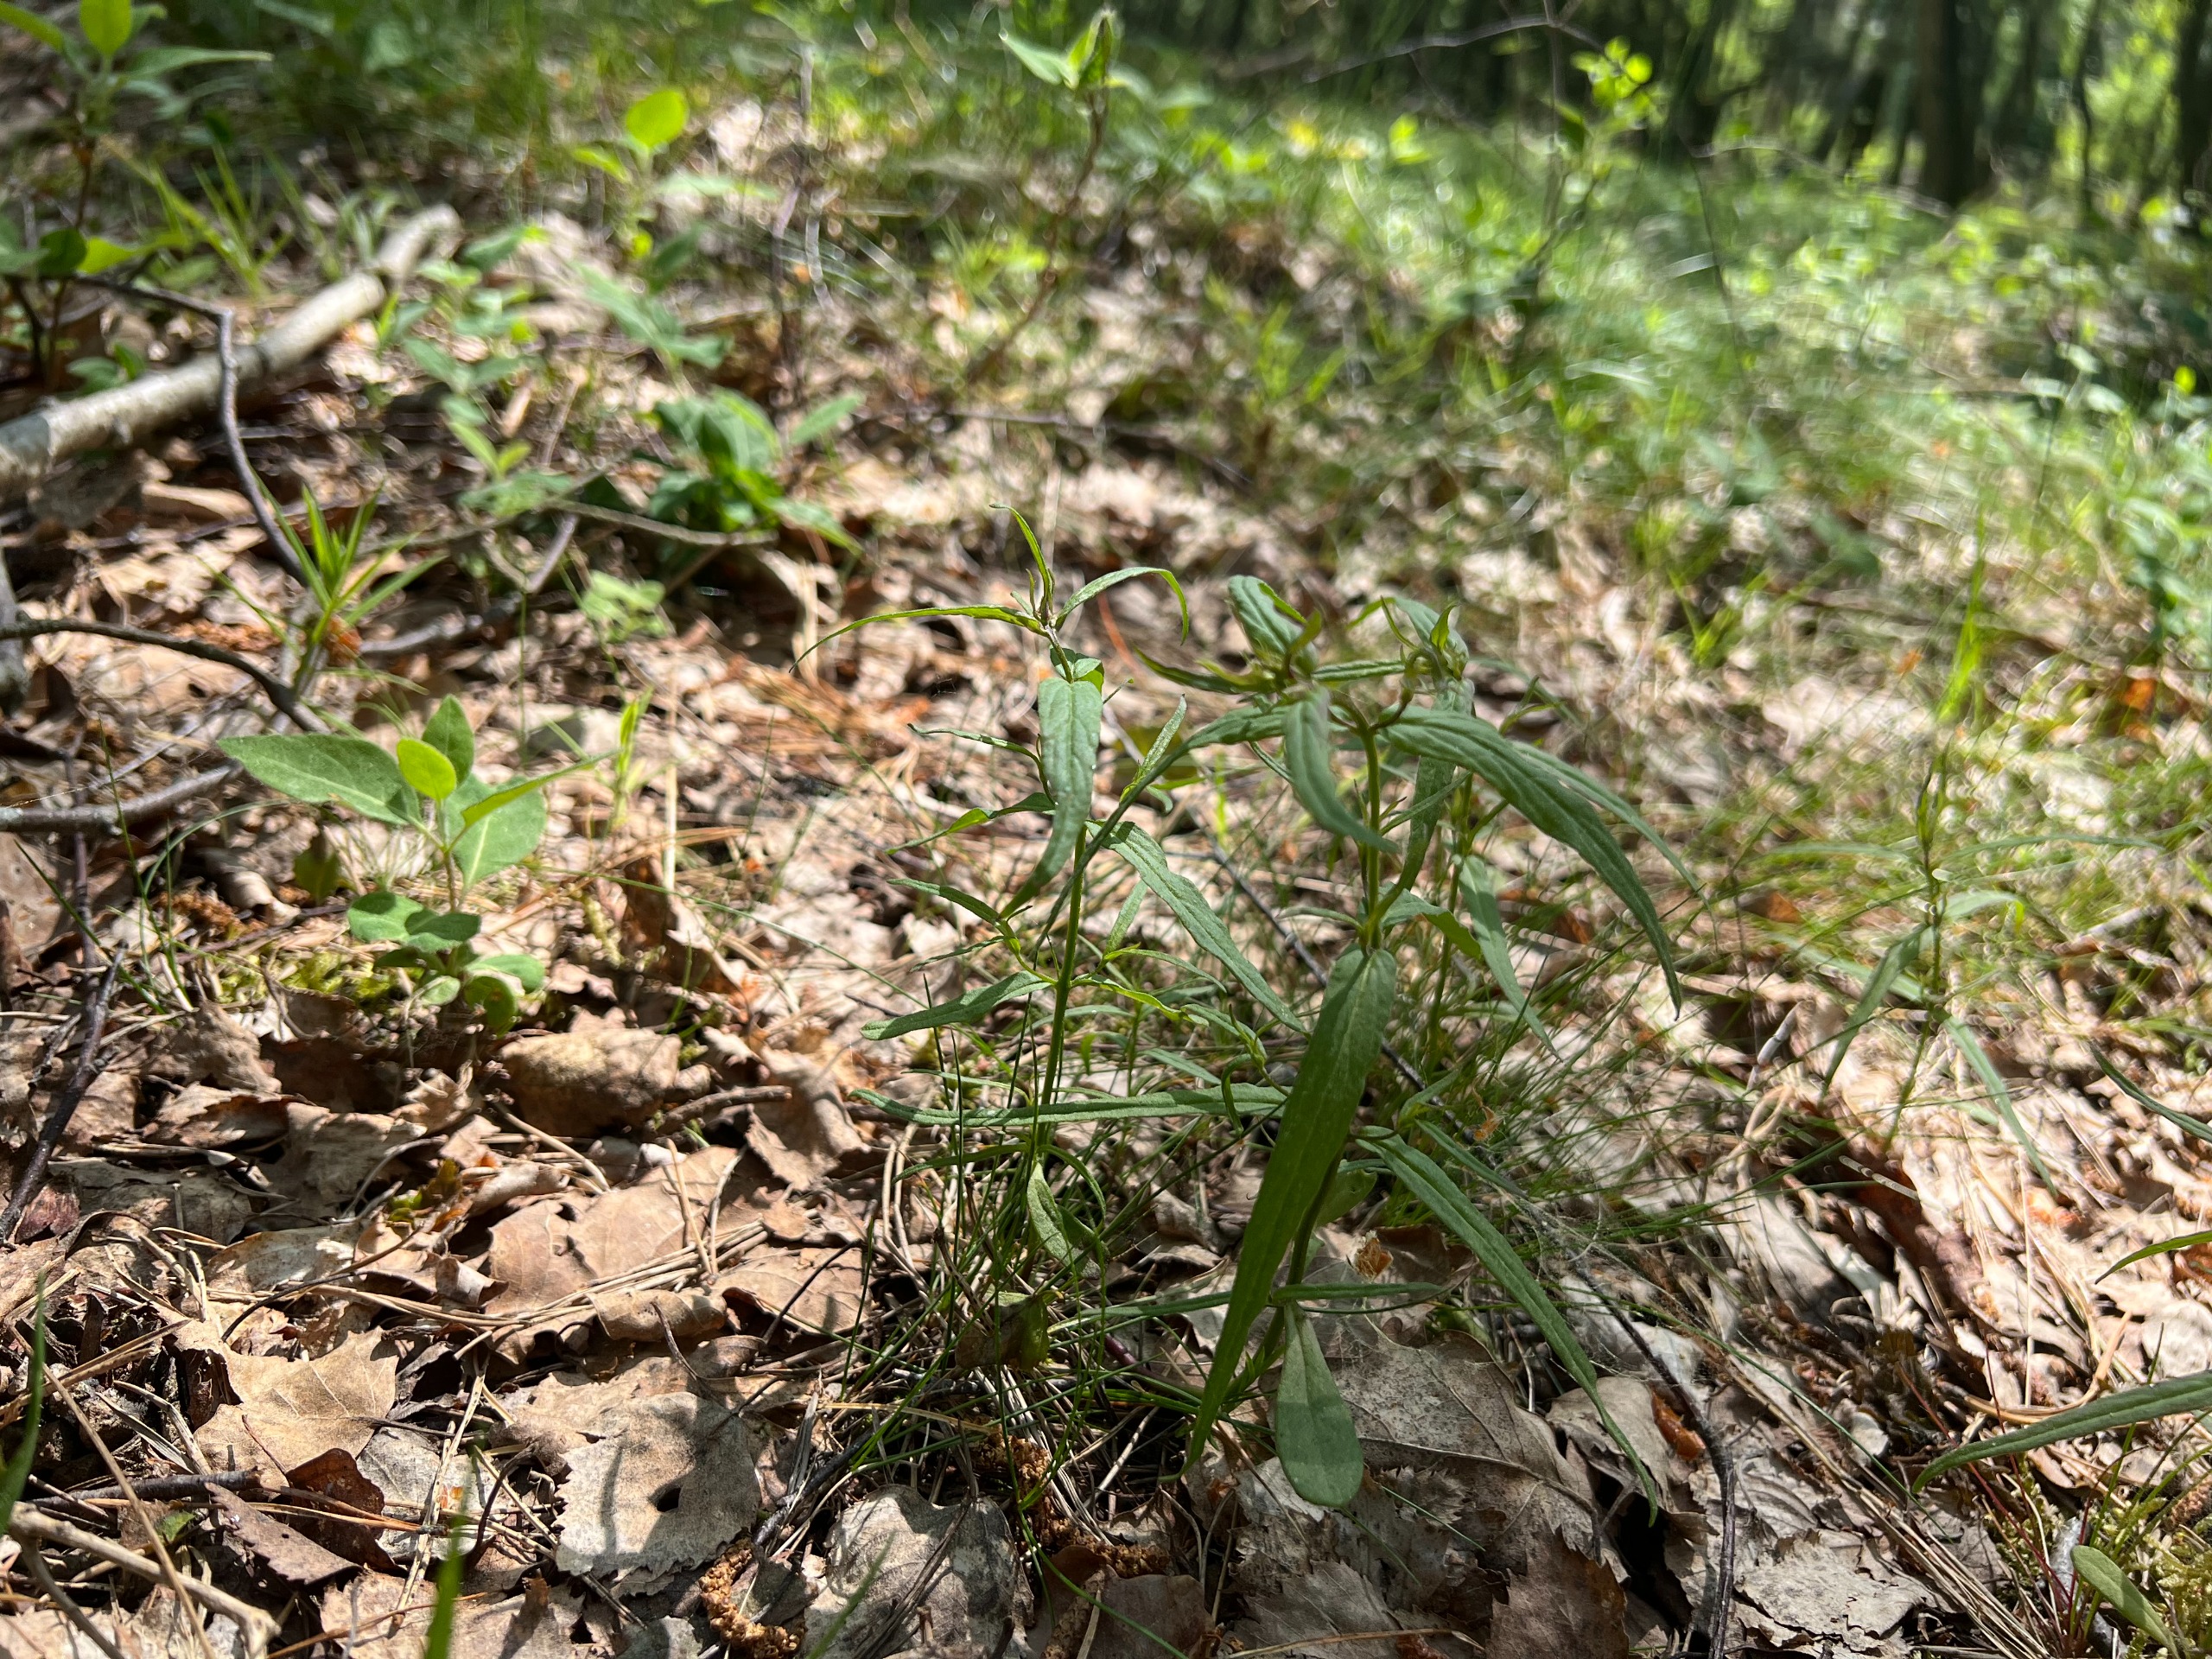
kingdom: Plantae
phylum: Tracheophyta
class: Magnoliopsida
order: Lamiales
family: Orobanchaceae
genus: Melampyrum
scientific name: Melampyrum pratense
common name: Almindelig kohvede
